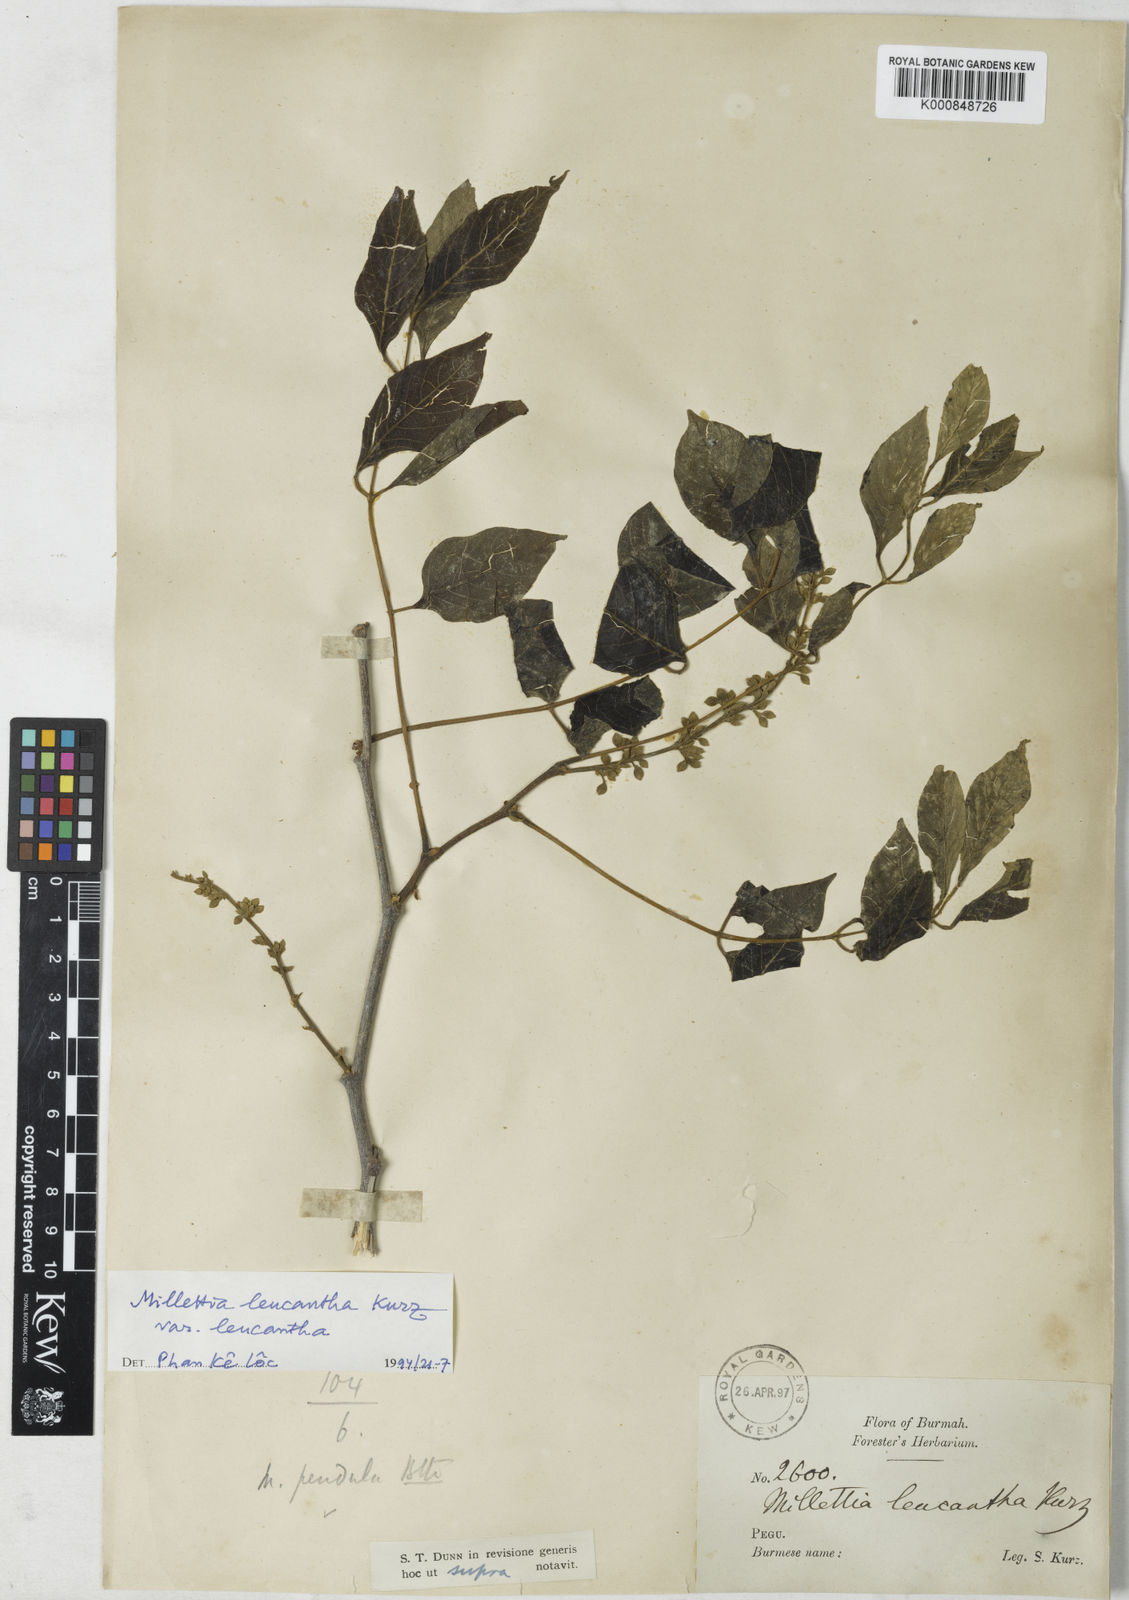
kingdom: Plantae
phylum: Tracheophyta
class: Magnoliopsida
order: Fabales
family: Fabaceae
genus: Imbralyx
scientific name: Imbralyx leucanthus
